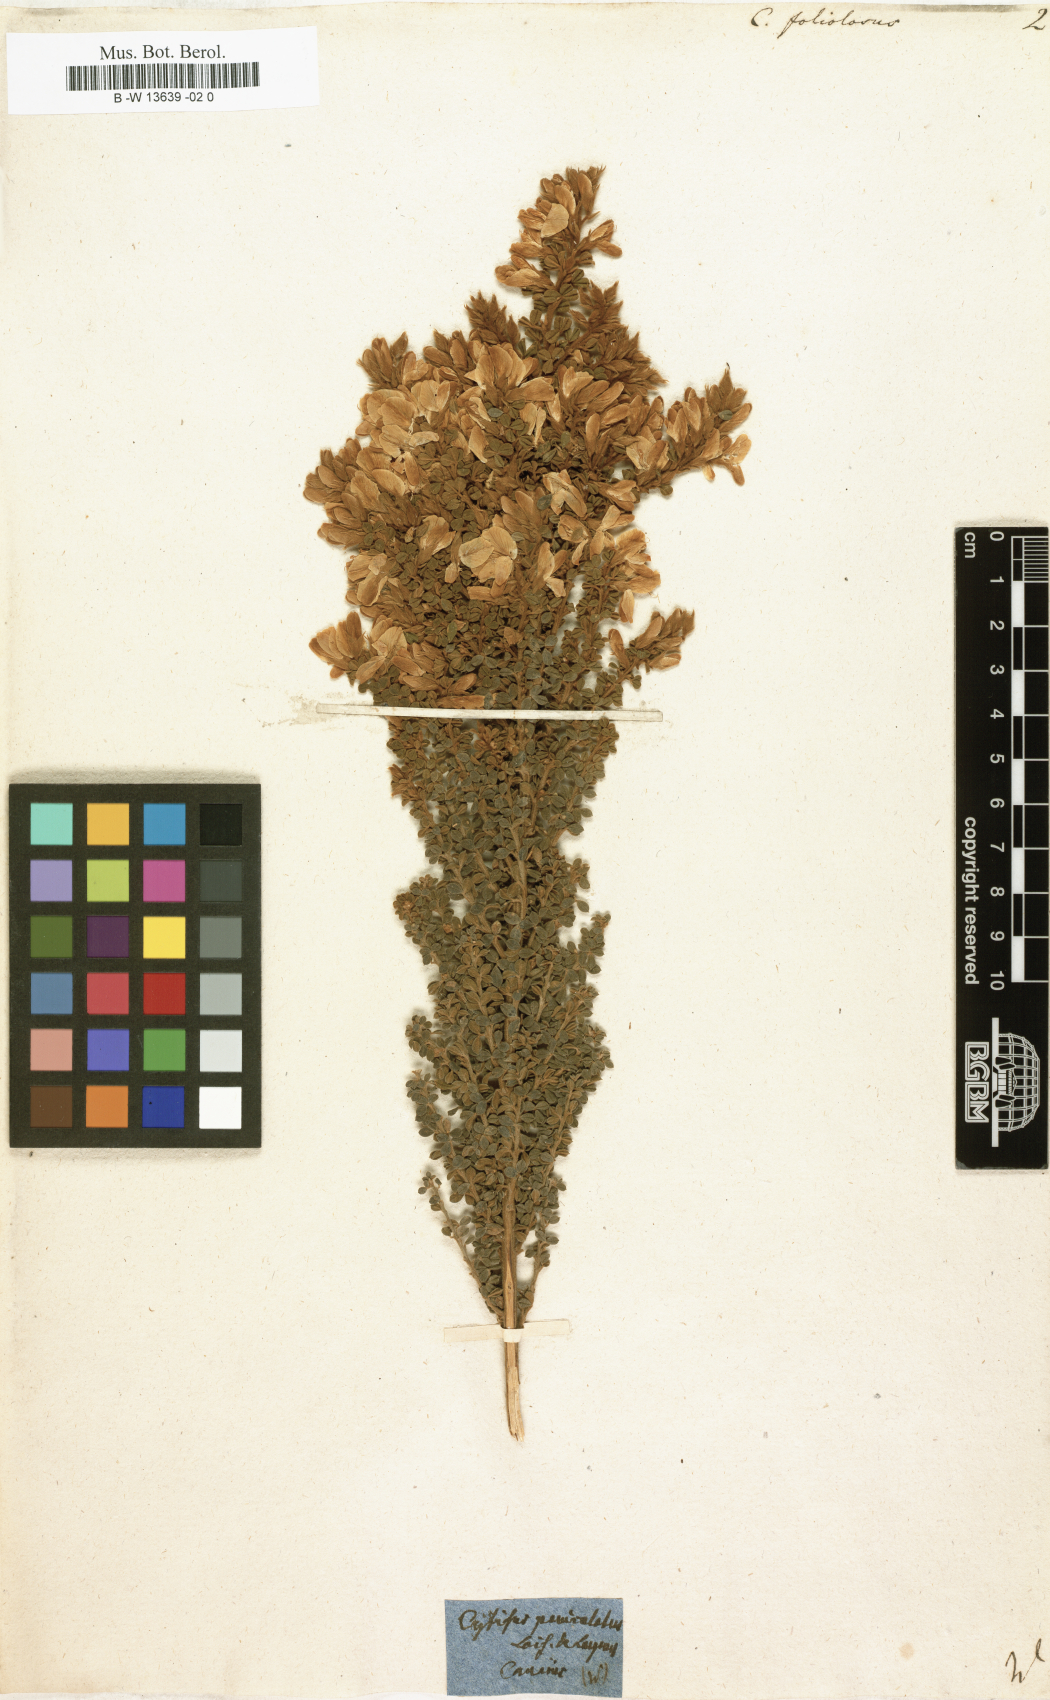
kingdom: Plantae
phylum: Tracheophyta
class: Magnoliopsida
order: Fabales
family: Fabaceae
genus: Adenocarpus
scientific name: Adenocarpus foliolosus
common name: Canary island flatpod
